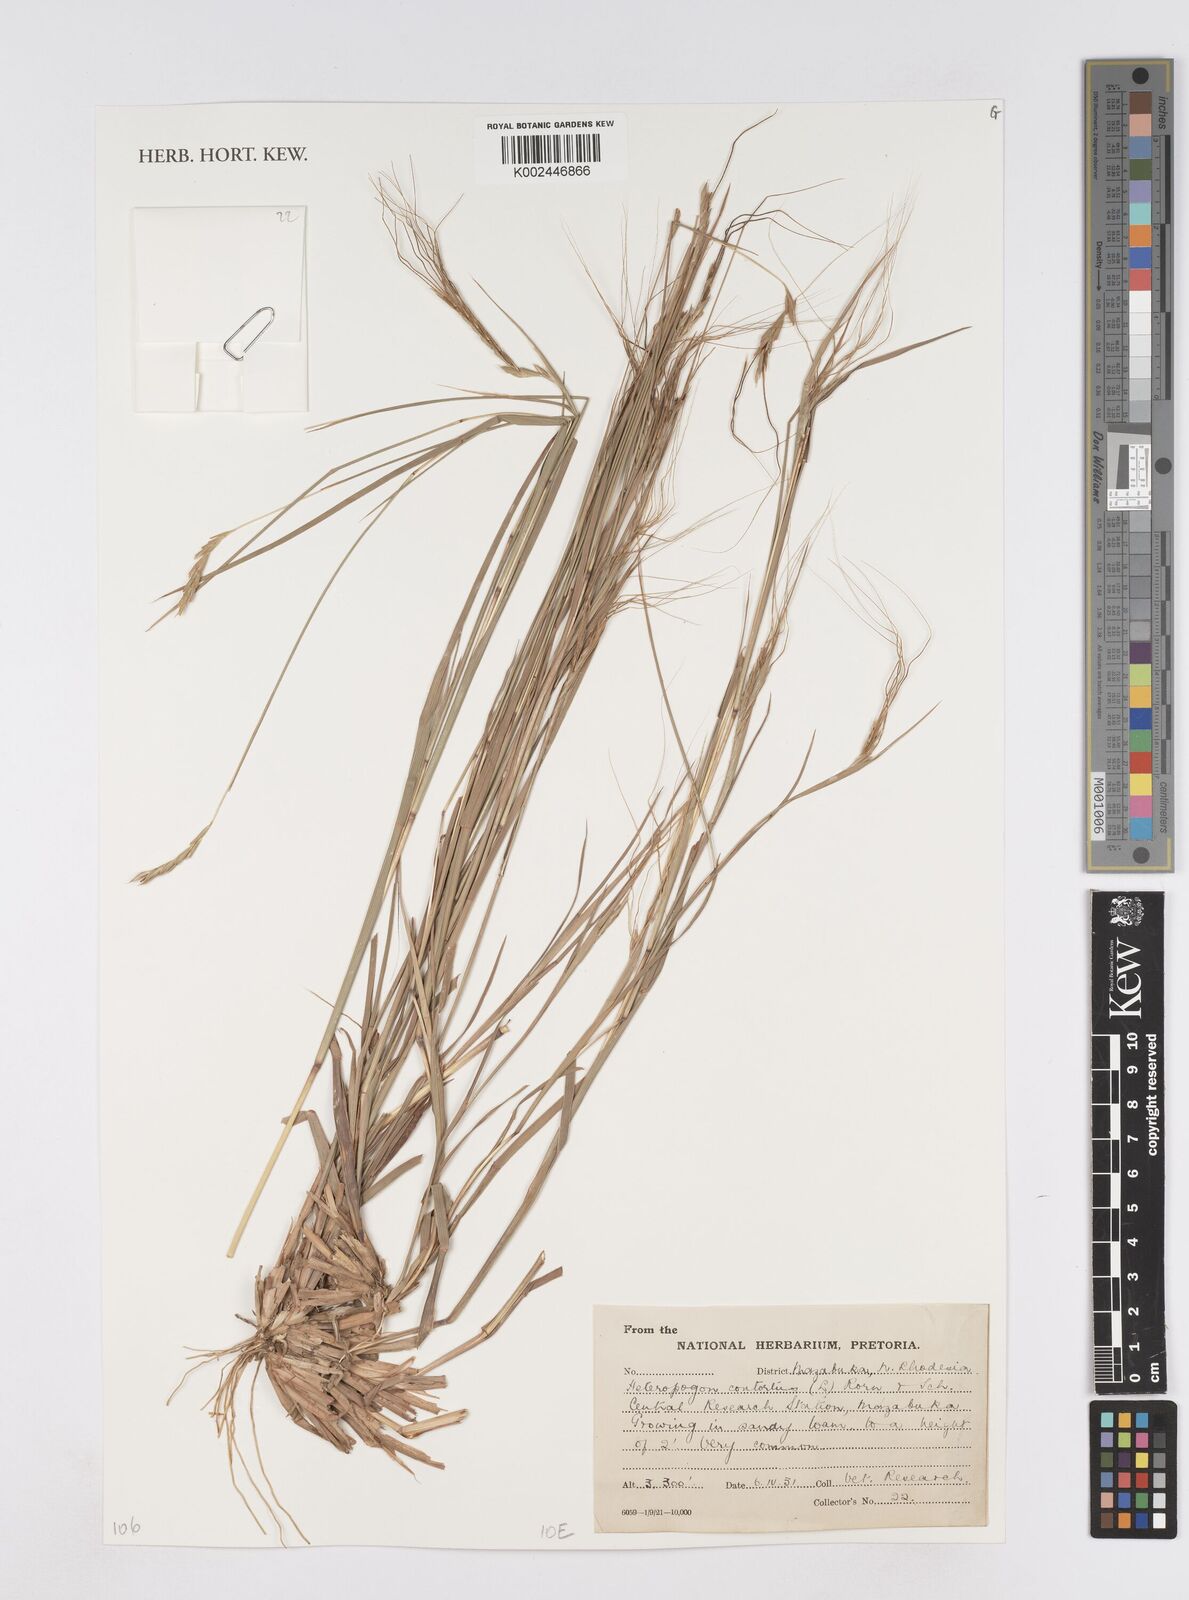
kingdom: Plantae
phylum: Tracheophyta
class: Liliopsida
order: Poales
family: Poaceae
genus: Heteropogon
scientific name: Heteropogon contortus
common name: Tanglehead
